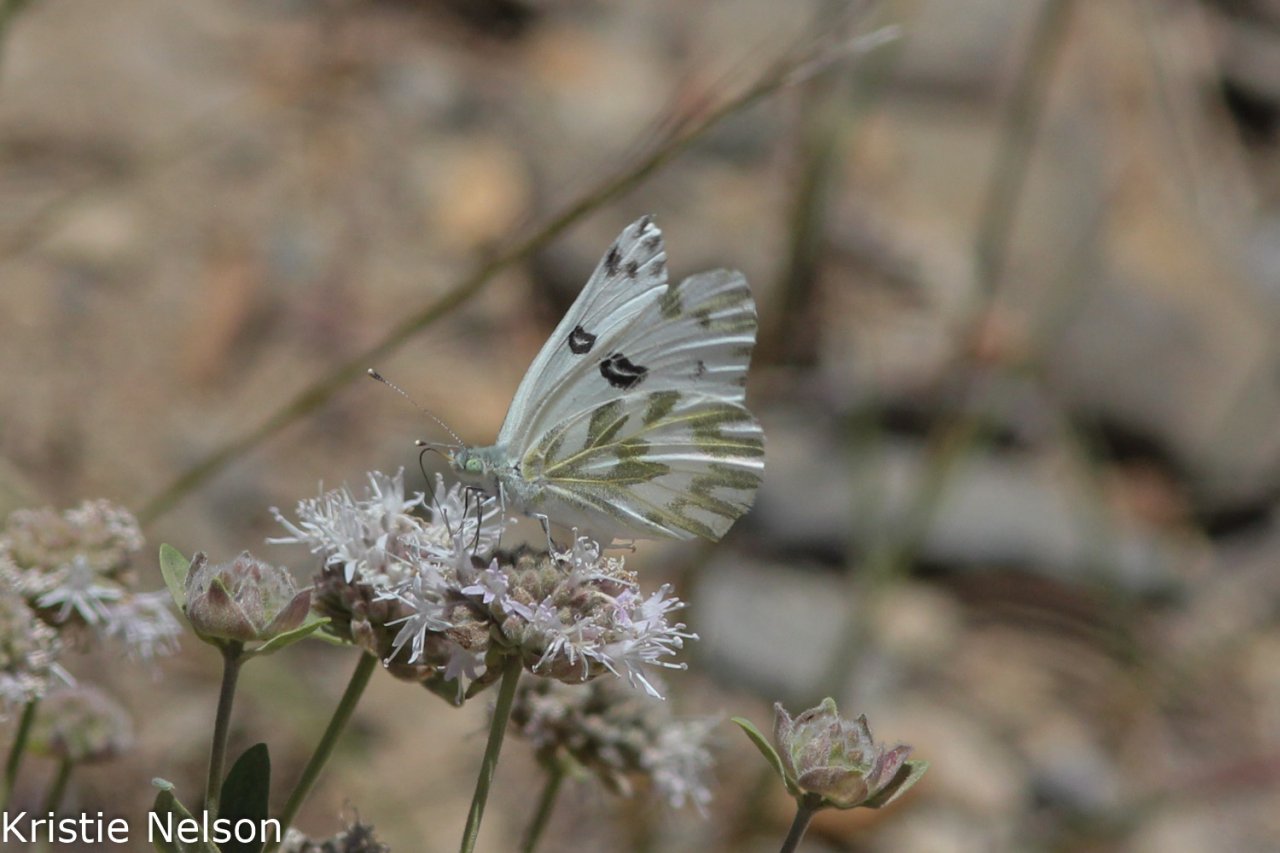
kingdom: Animalia
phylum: Arthropoda
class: Insecta
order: Lepidoptera
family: Pieridae
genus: Pontia
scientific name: Pontia beckerii
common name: Becker's White
